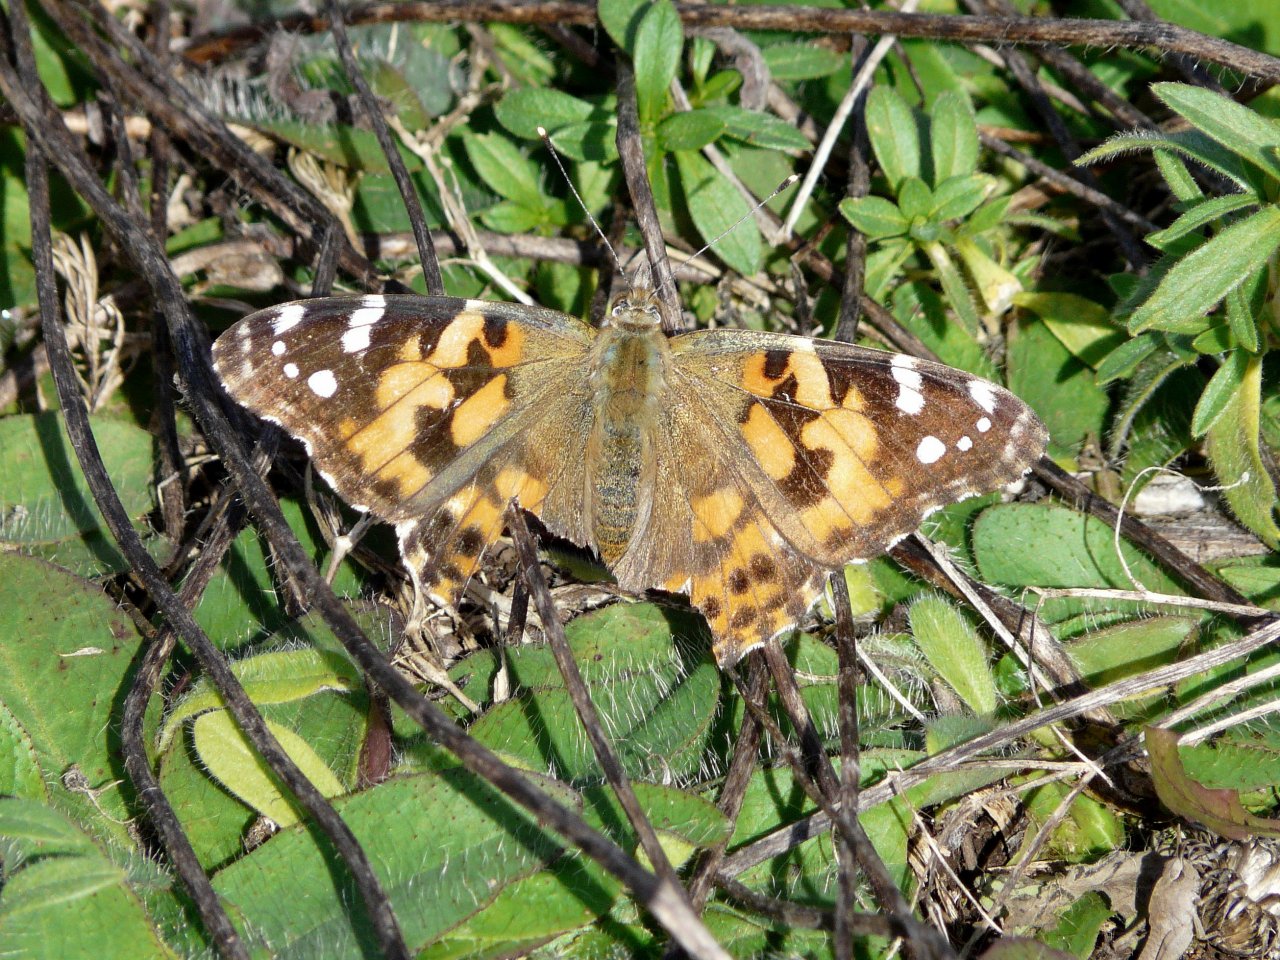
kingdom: Animalia
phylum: Arthropoda
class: Insecta
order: Lepidoptera
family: Nymphalidae
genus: Vanessa
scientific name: Vanessa cardui
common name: Painted Lady
